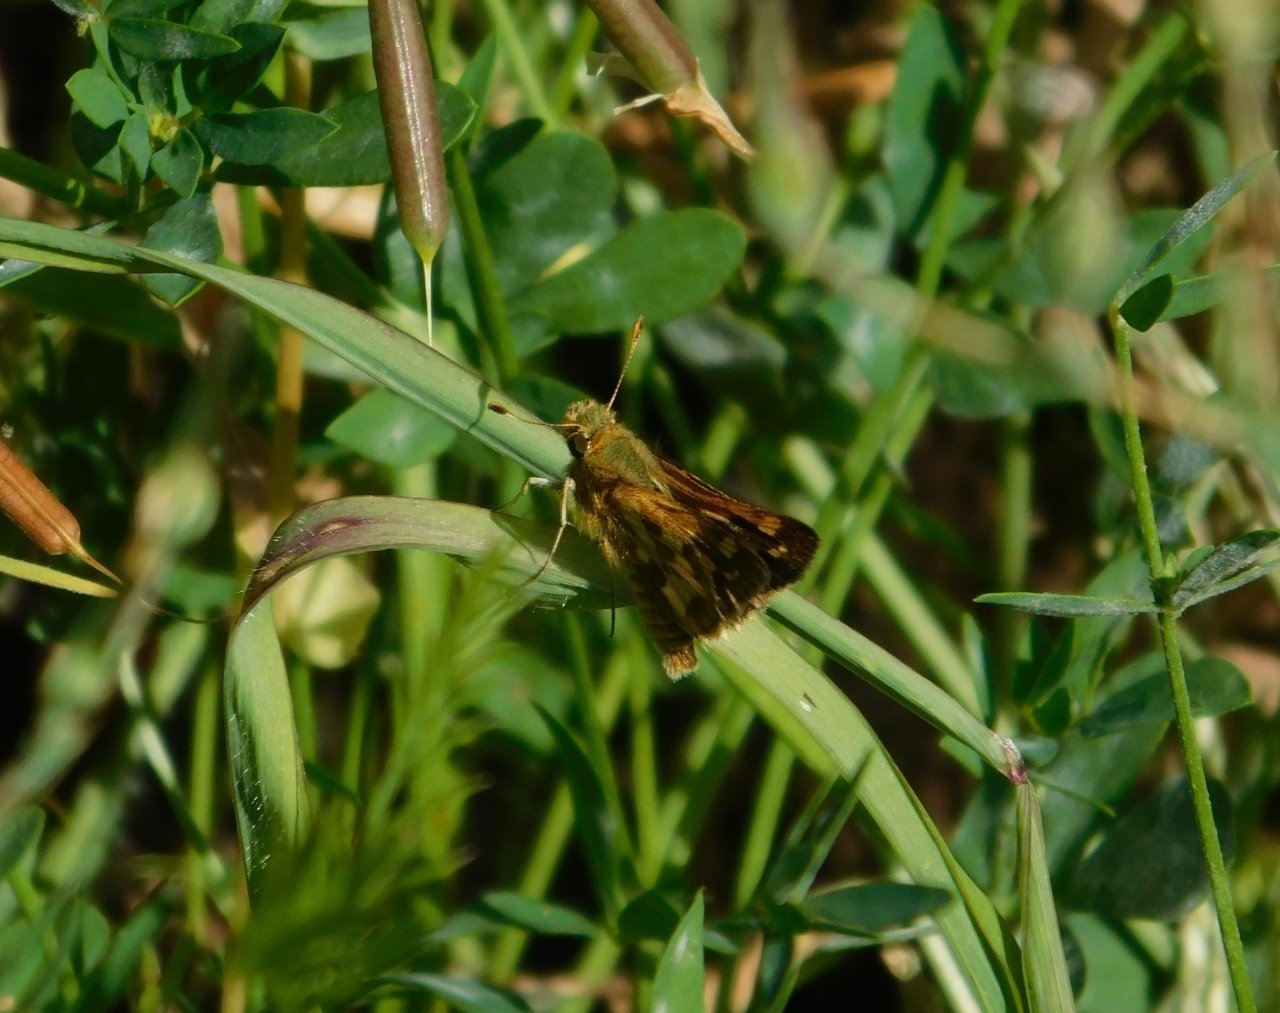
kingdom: Animalia
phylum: Arthropoda
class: Insecta
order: Lepidoptera
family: Hesperiidae
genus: Polites
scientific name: Polites coras
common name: Peck's Skipper
